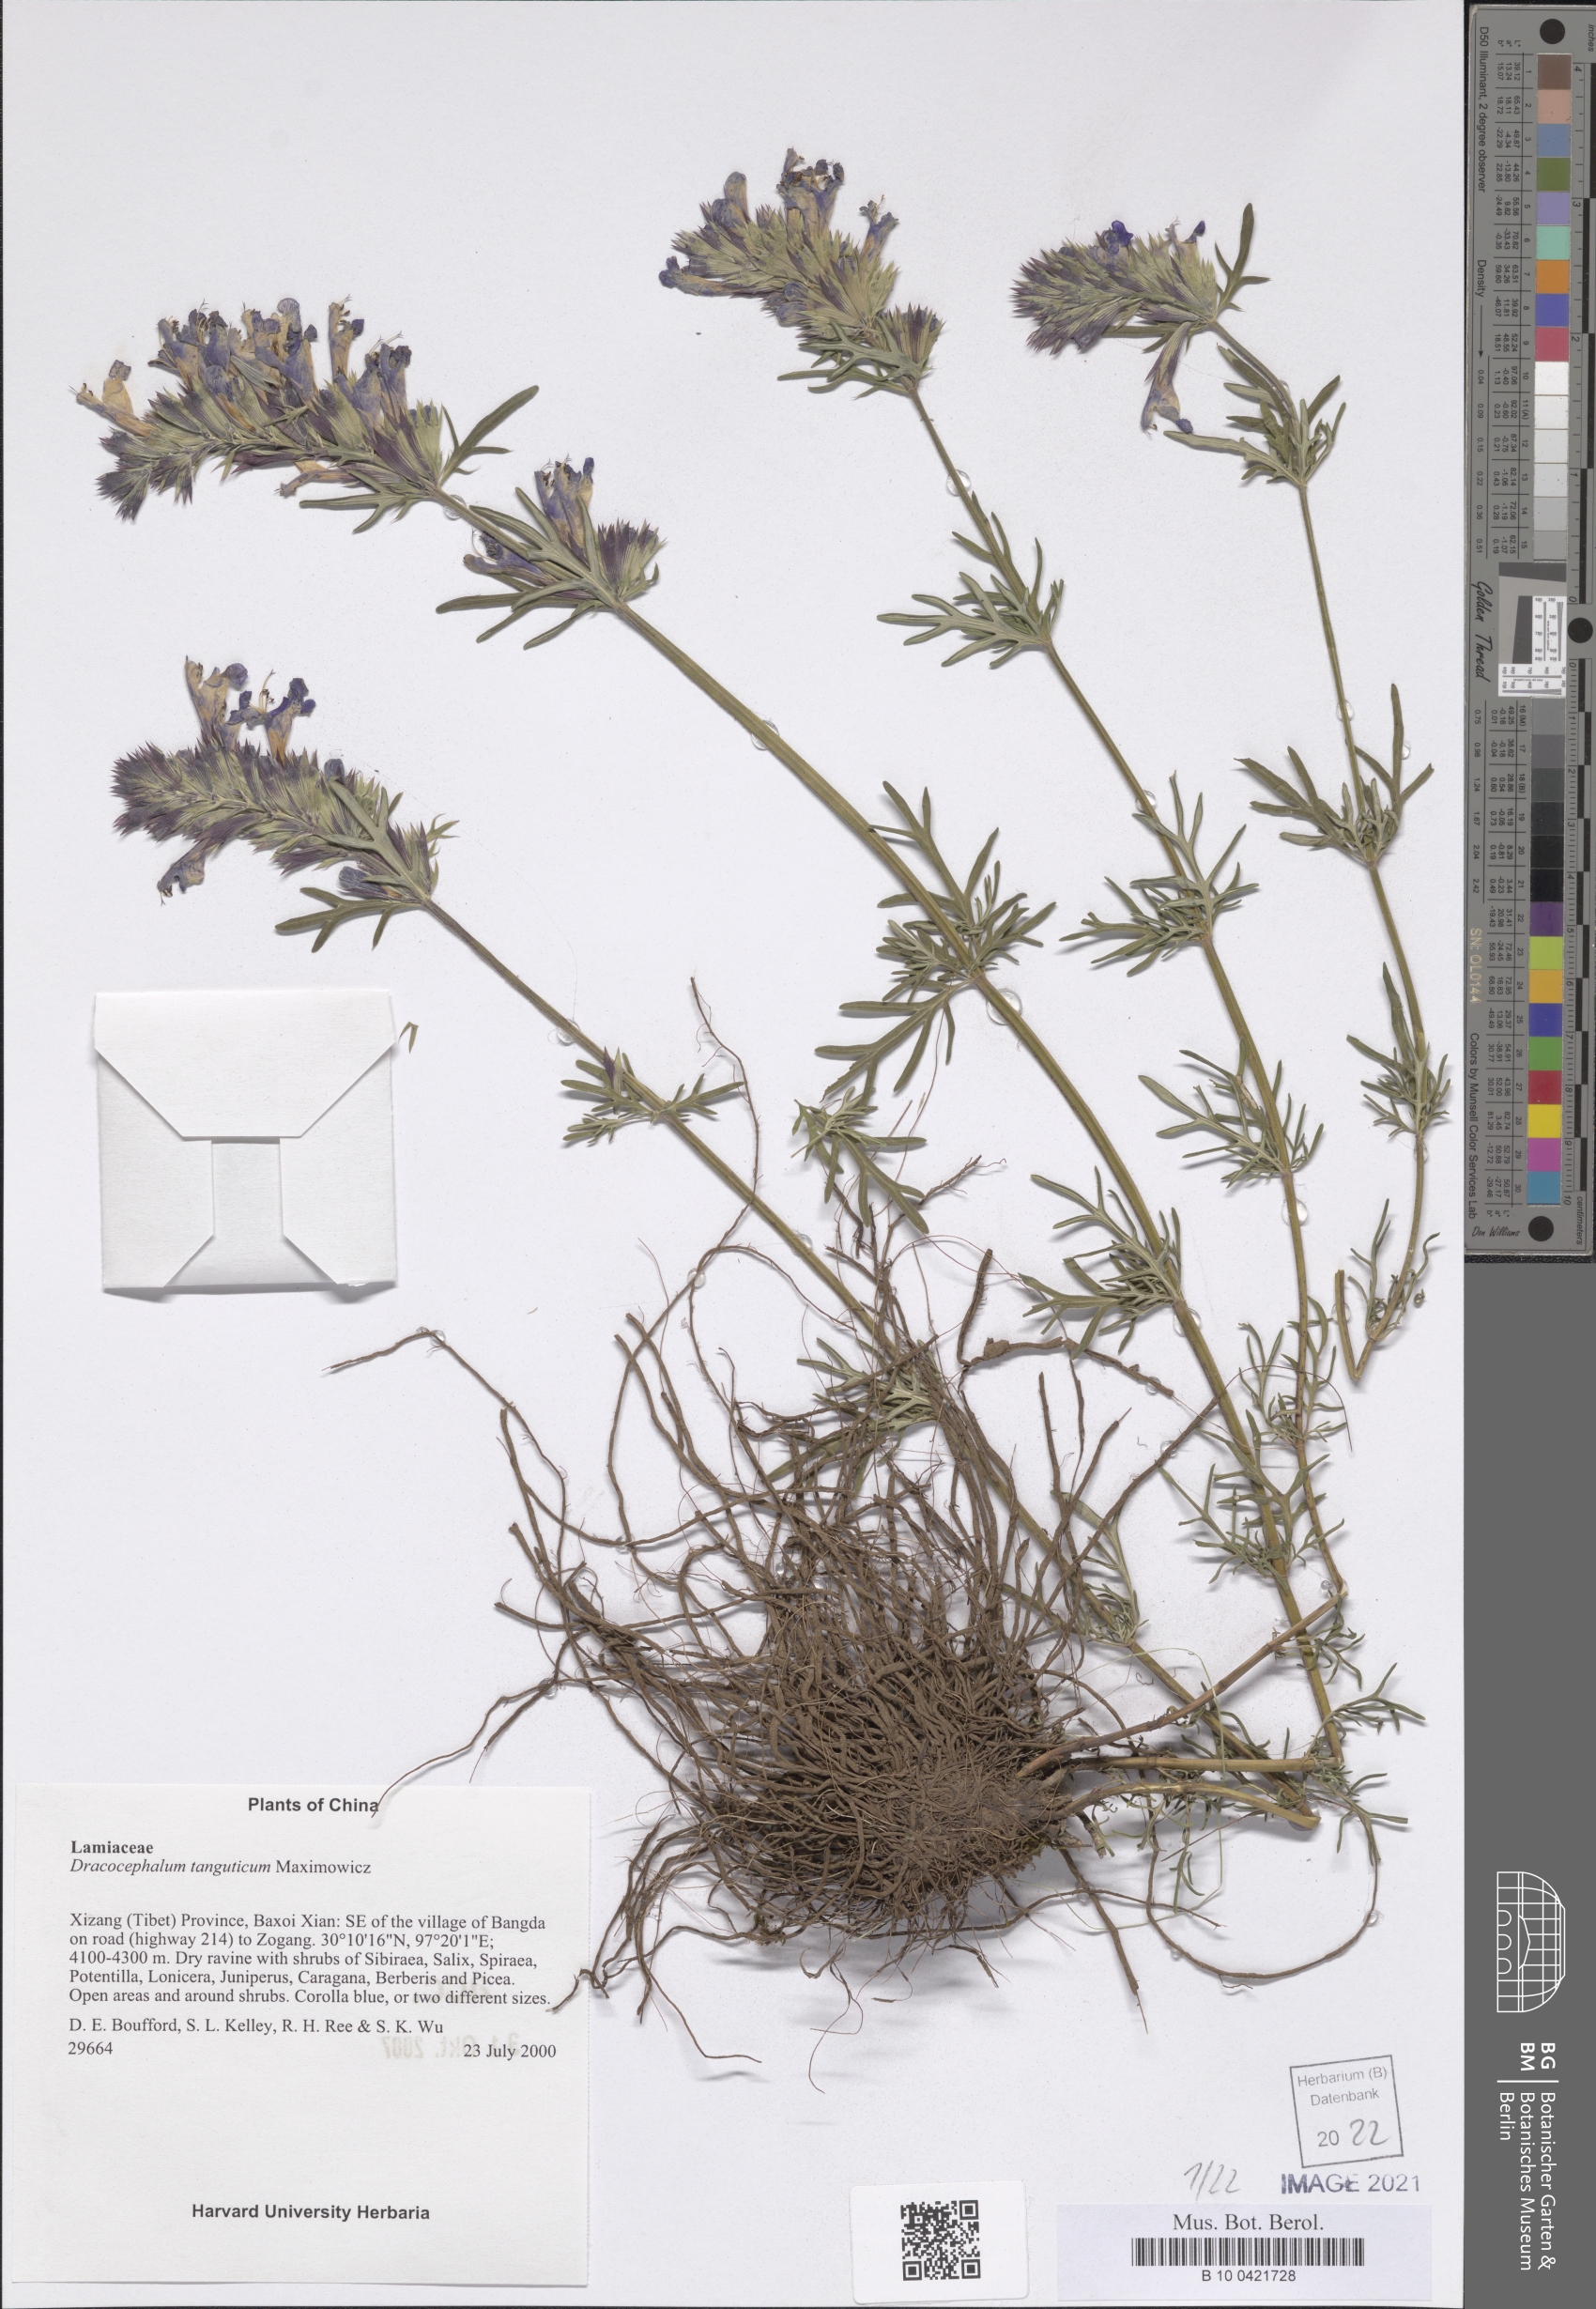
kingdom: Plantae
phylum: Tracheophyta
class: Magnoliopsida
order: Lamiales
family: Lamiaceae
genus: Dracocephalum
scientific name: Dracocephalum tanguticum
